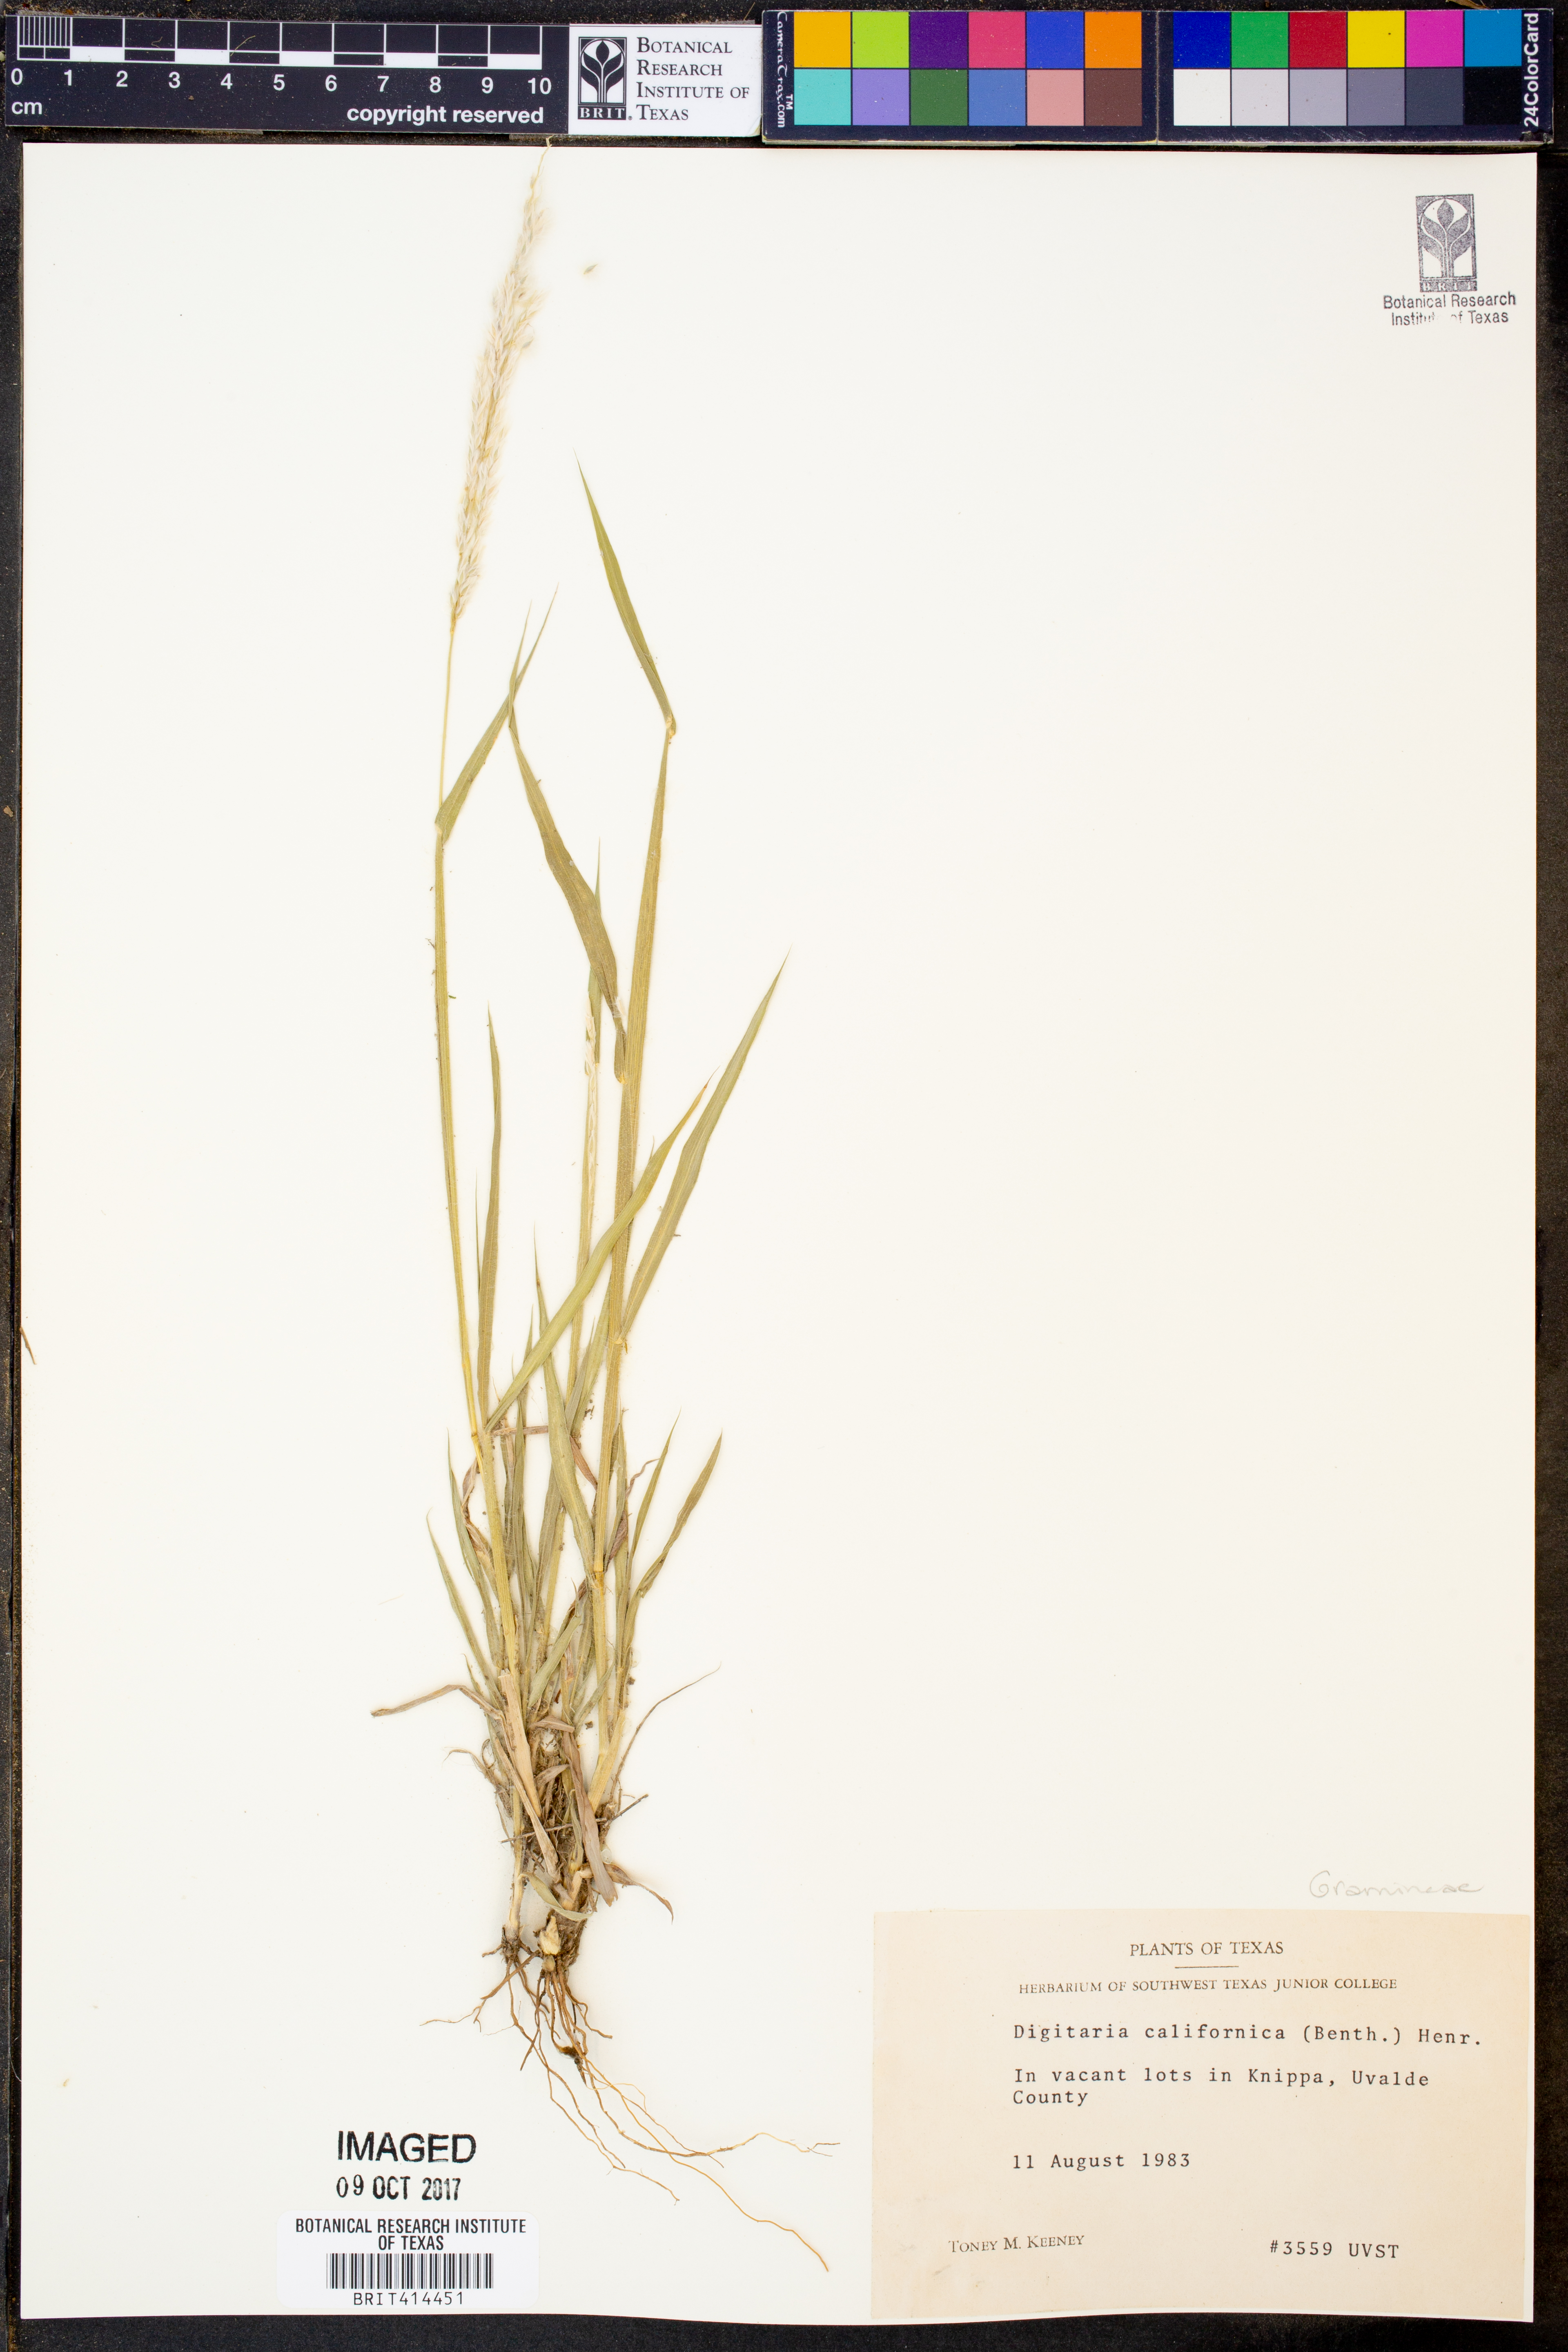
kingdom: Plantae
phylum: Tracheophyta
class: Liliopsida
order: Poales
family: Poaceae
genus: Digitaria
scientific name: Digitaria californica
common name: Arizona cottontop
